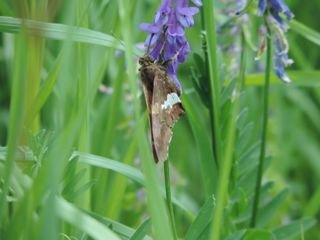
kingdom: Animalia
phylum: Arthropoda
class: Insecta
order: Lepidoptera
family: Hesperiidae
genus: Epargyreus
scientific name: Epargyreus clarus
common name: Silver-spotted Skipper
